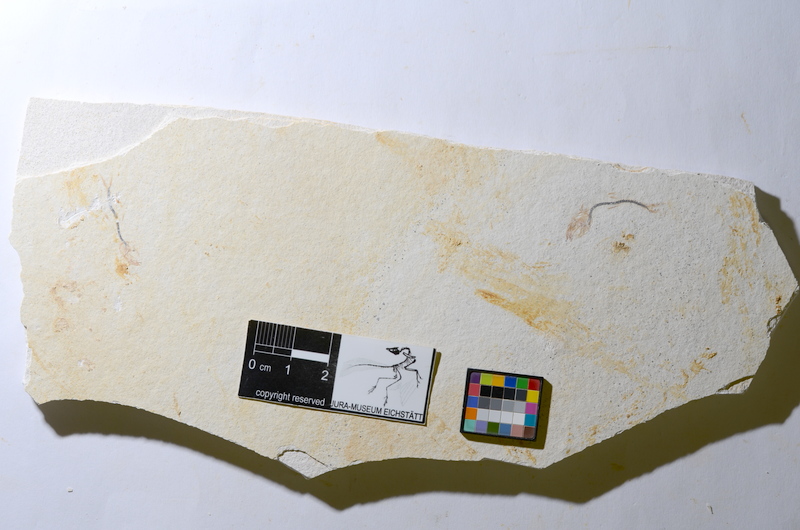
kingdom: Animalia
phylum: Chordata
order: Salmoniformes
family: Orthogonikleithridae
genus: Orthogonikleithrus
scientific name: Orthogonikleithrus hoelli
